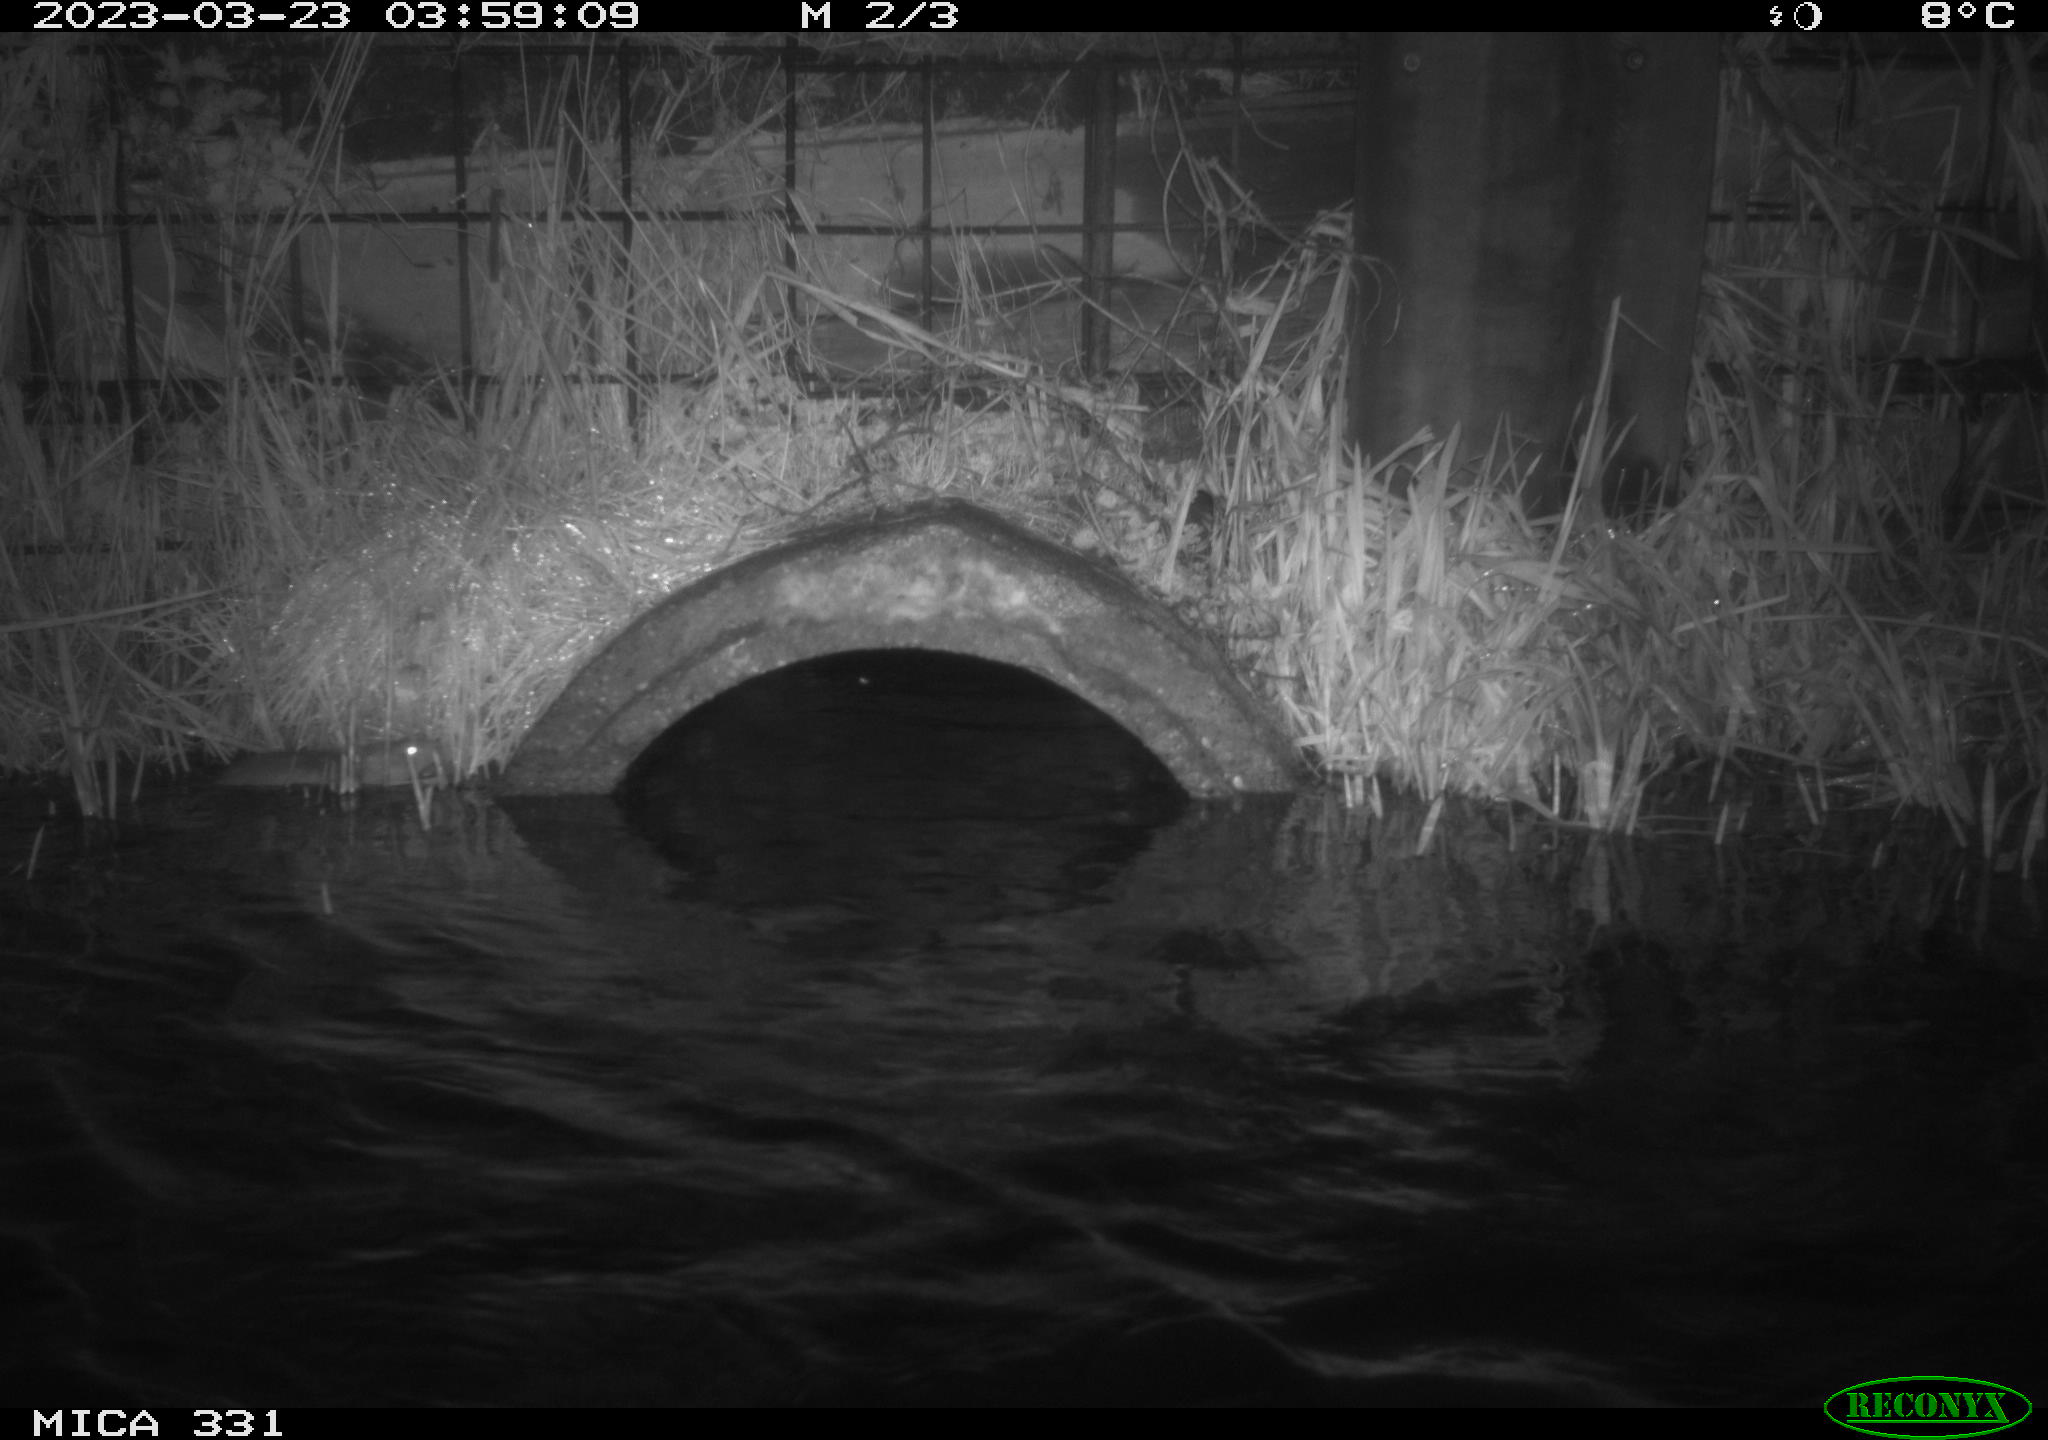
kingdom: Animalia
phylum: Chordata
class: Mammalia
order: Rodentia
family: Muridae
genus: Rattus
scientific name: Rattus norvegicus
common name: Brown rat
